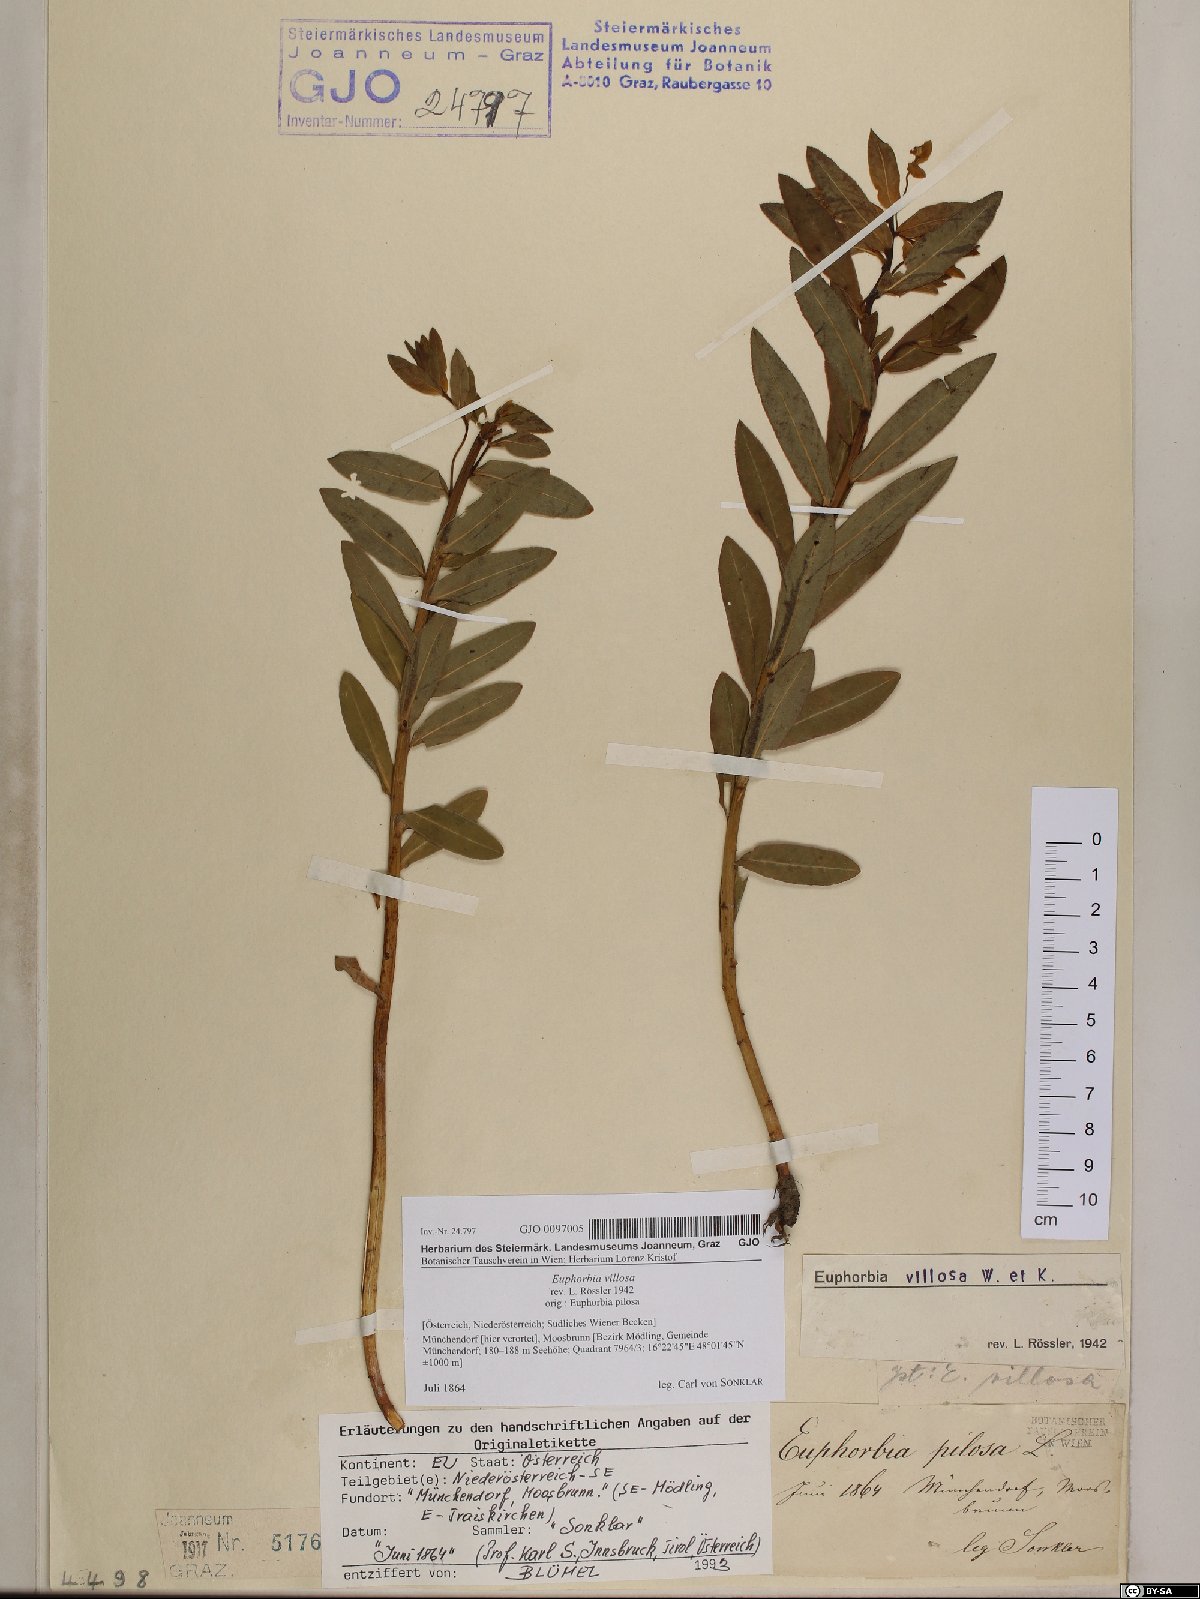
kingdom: Plantae
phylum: Tracheophyta
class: Magnoliopsida
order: Malpighiales
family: Euphorbiaceae
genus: Euphorbia
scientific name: Euphorbia illirica
